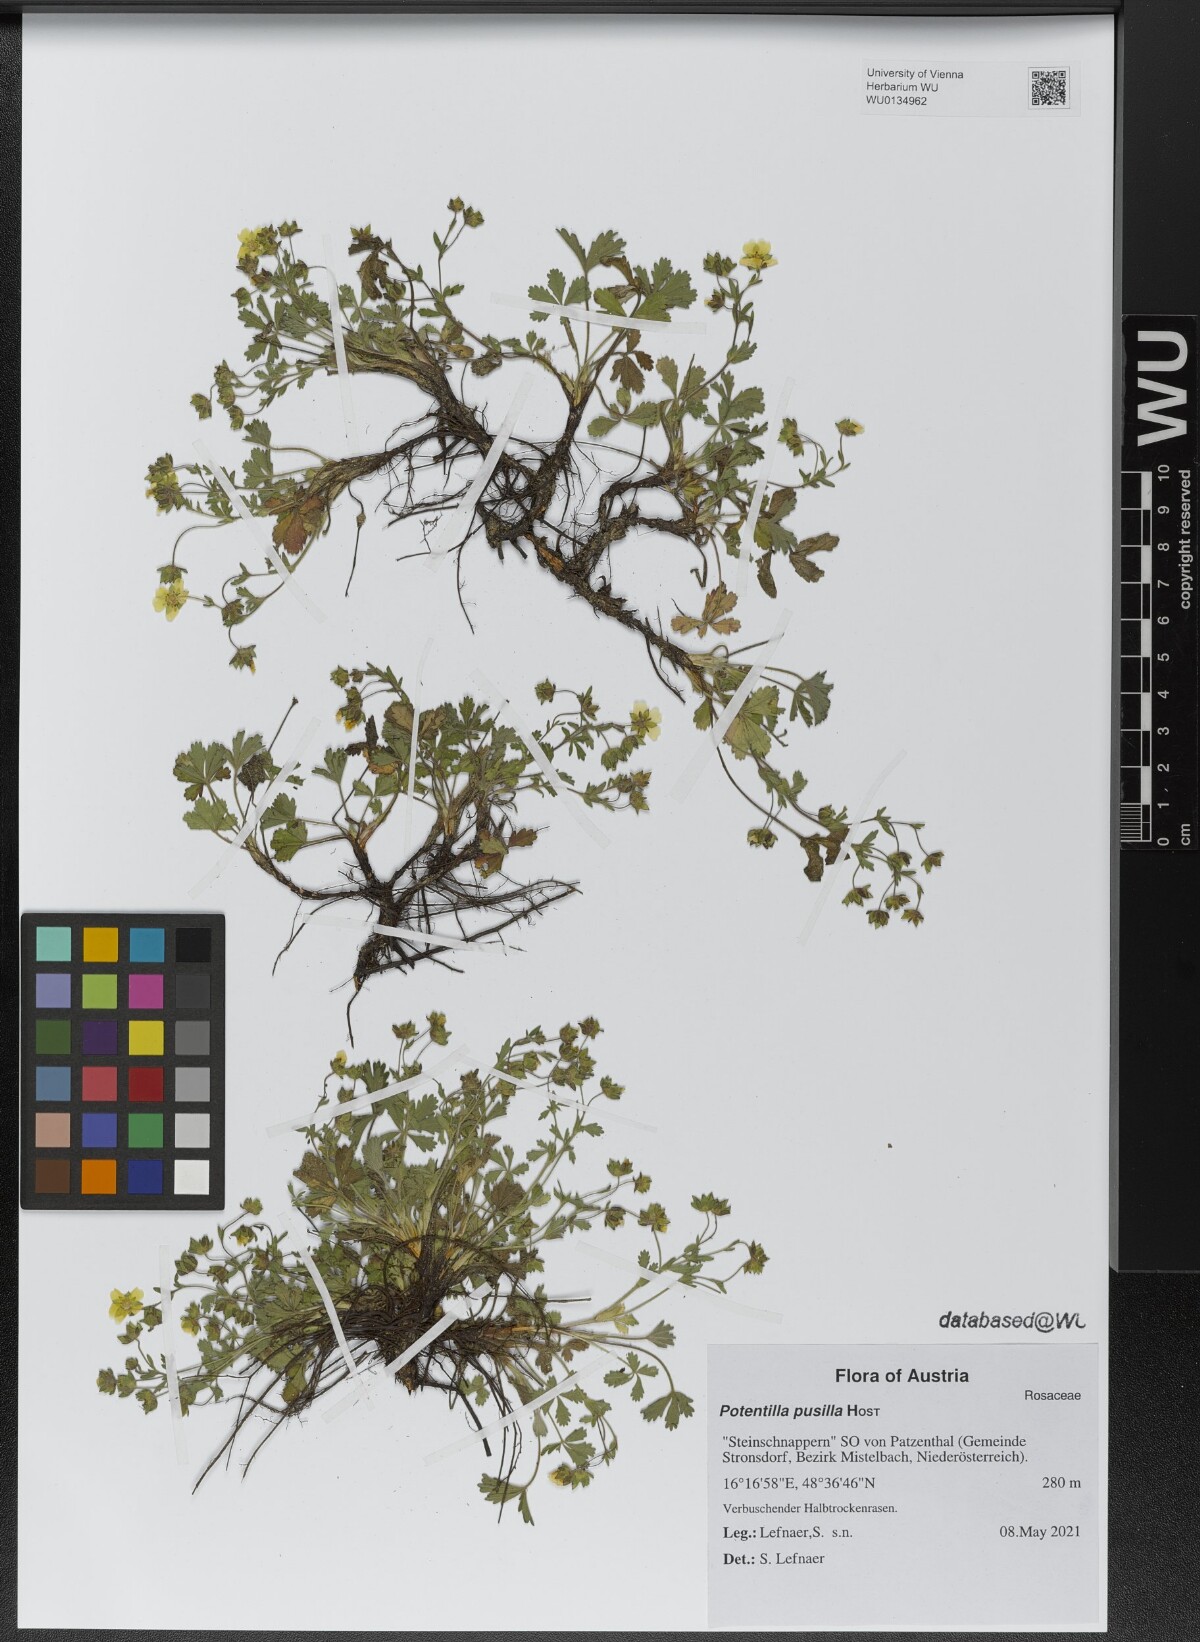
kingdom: Plantae
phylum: Tracheophyta
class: Magnoliopsida
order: Rosales
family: Rosaceae
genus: Potentilla
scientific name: Potentilla pusilla
